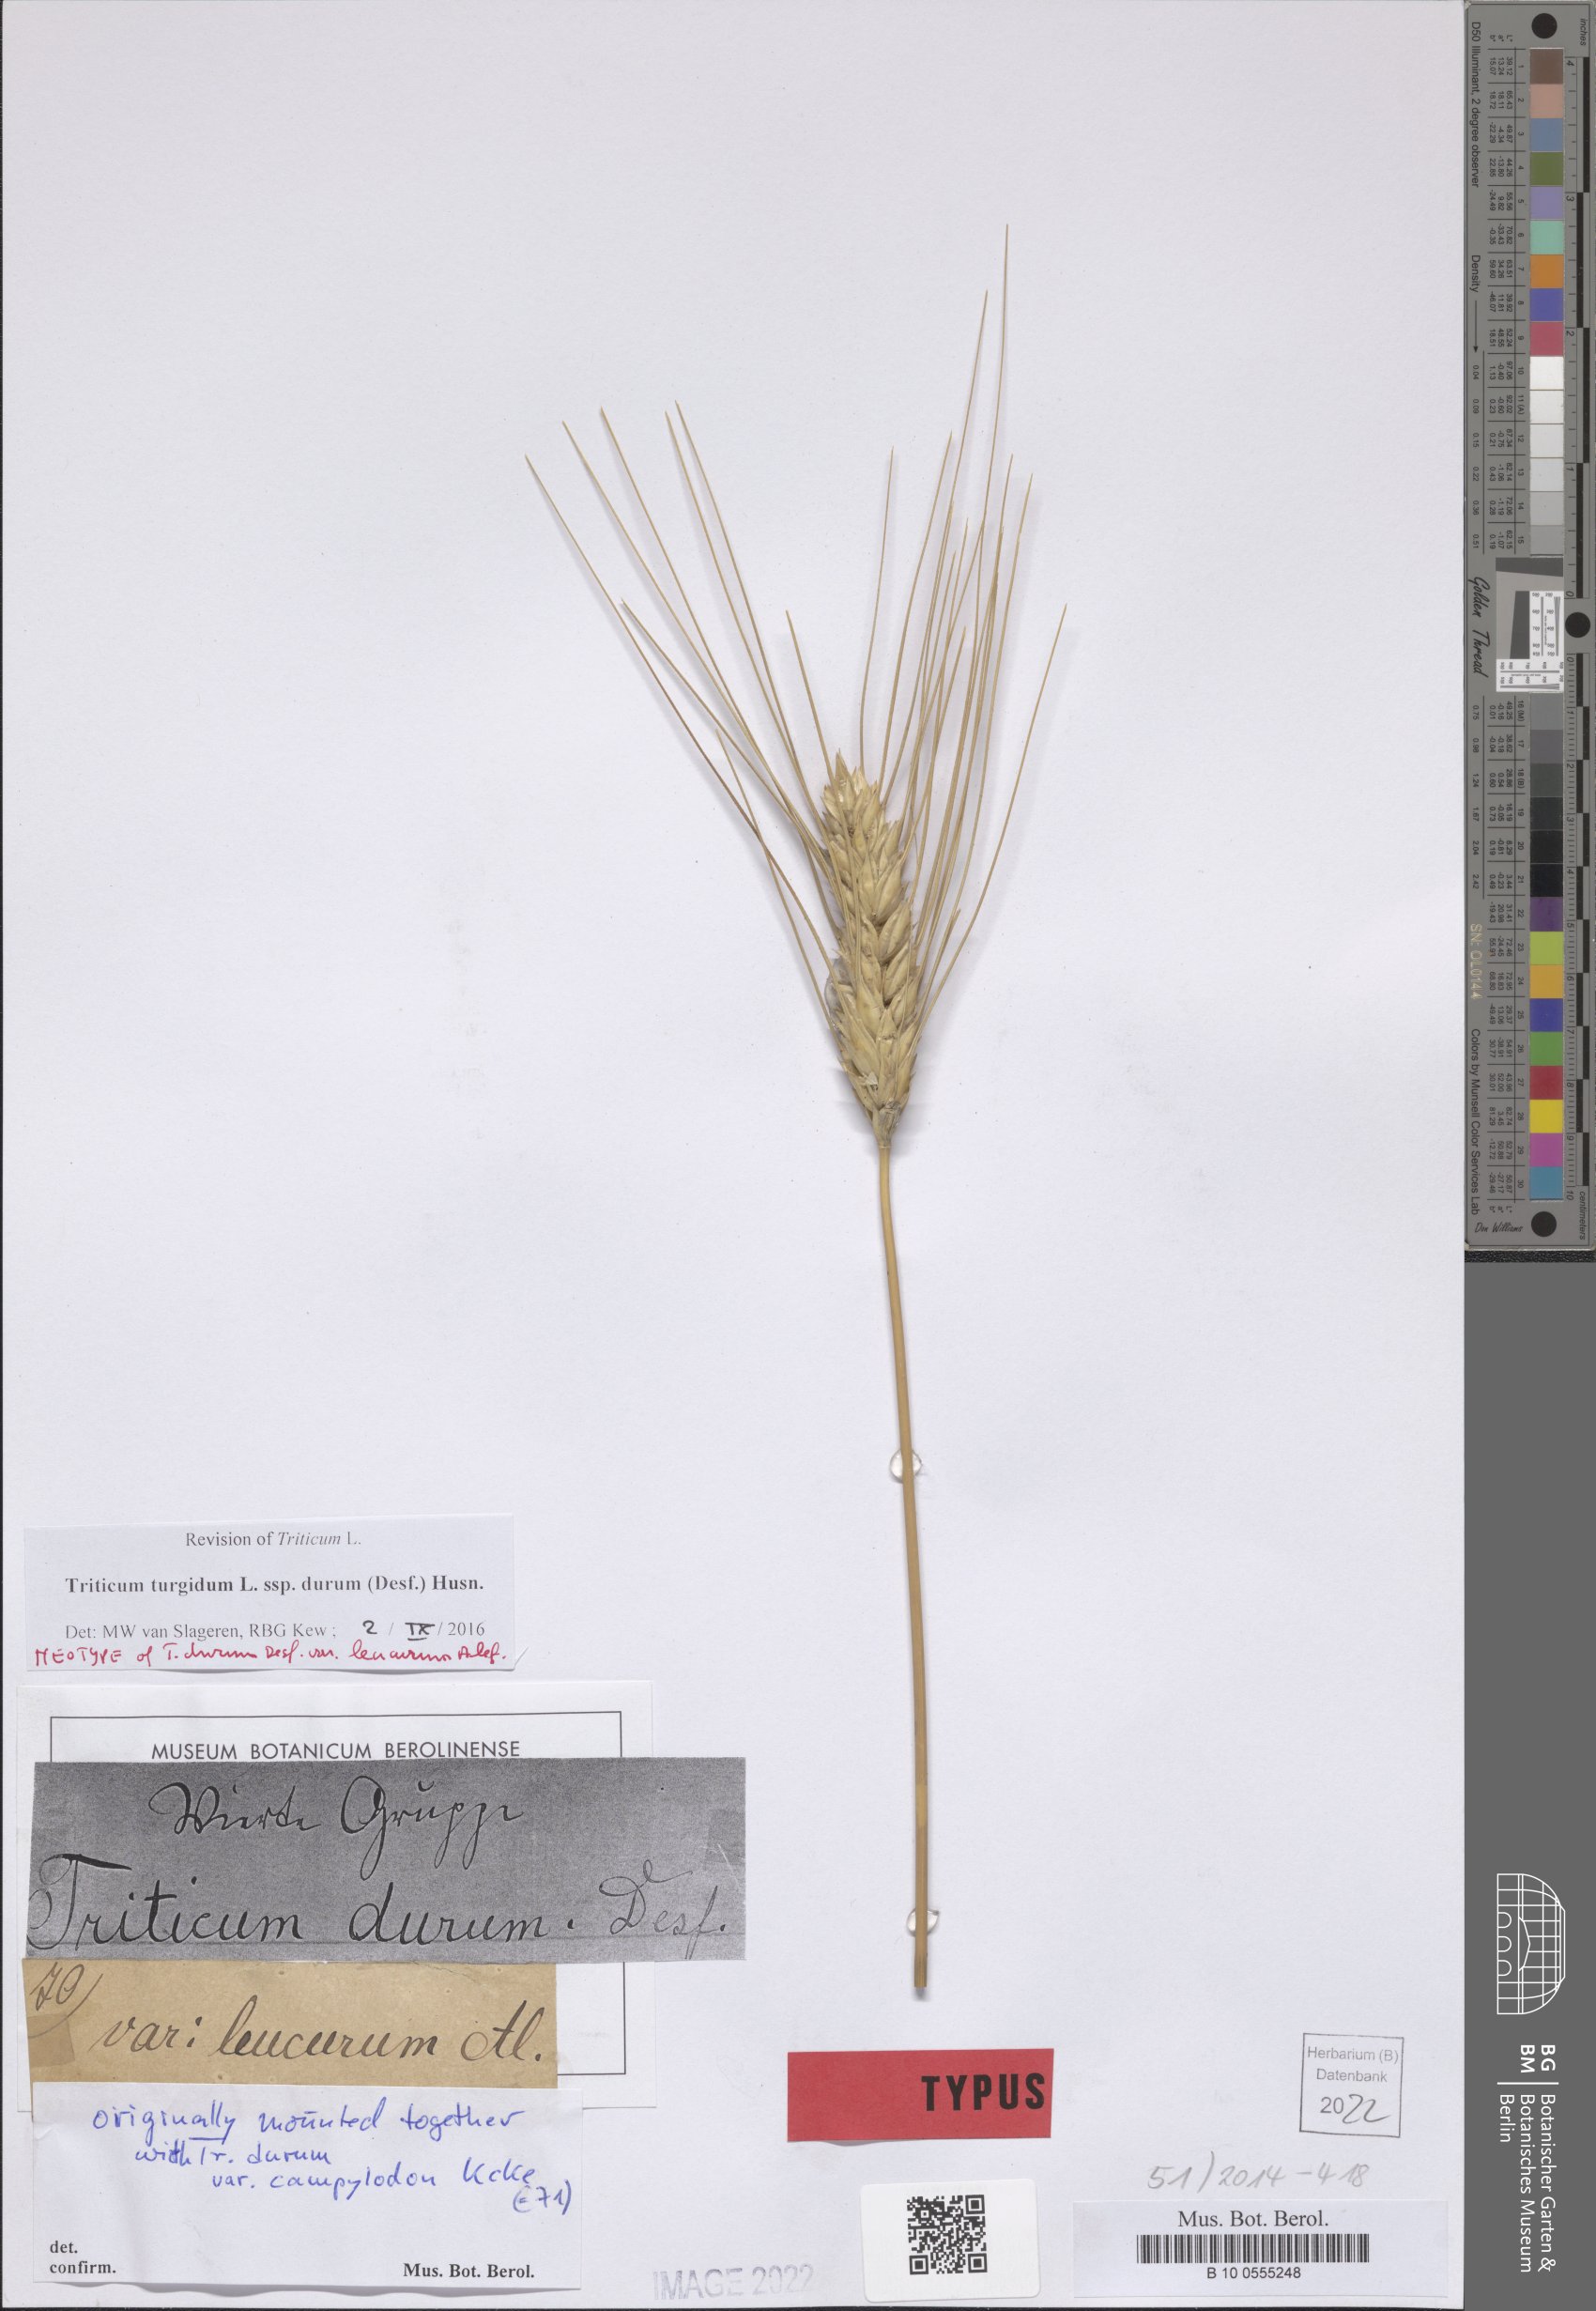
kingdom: Plantae
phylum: Tracheophyta
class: Liliopsida
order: Poales
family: Poaceae
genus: Triticum
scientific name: Triticum turgidum
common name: Rivet wheat
